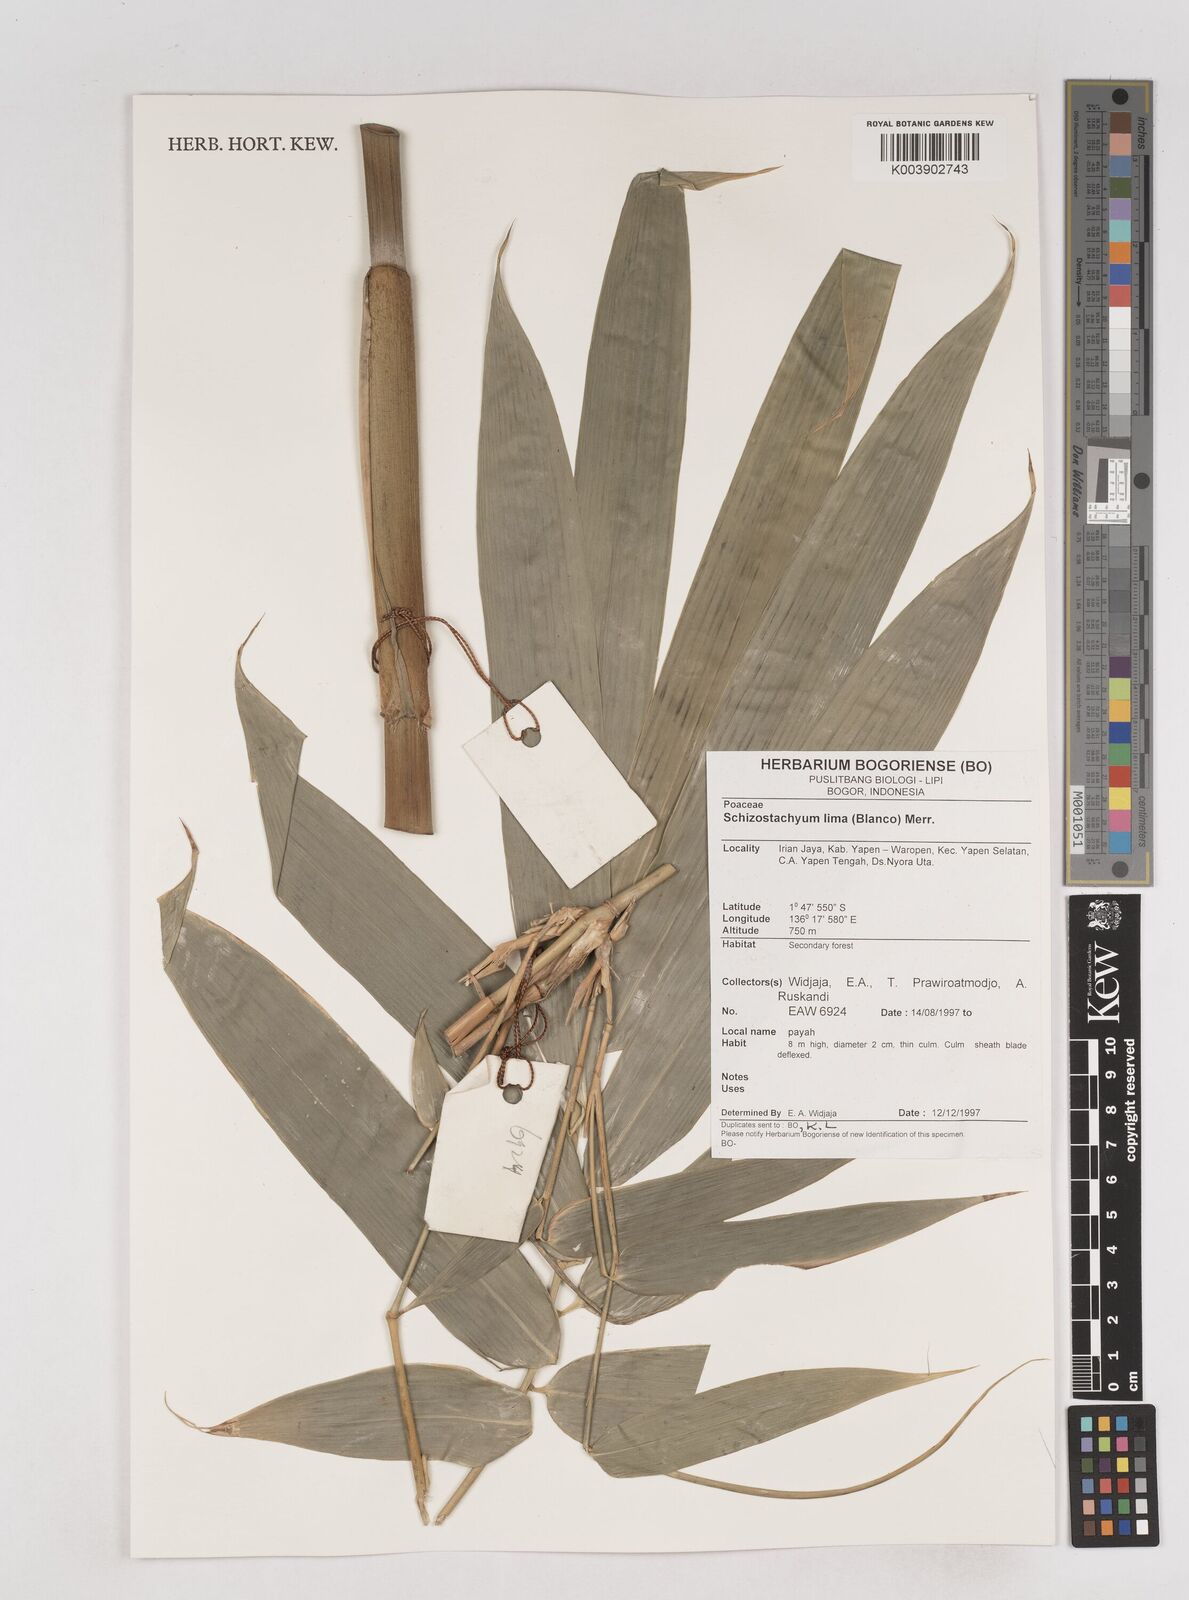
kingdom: Plantae
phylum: Tracheophyta
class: Liliopsida
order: Poales
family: Poaceae
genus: Schizostachyum
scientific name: Schizostachyum lima
